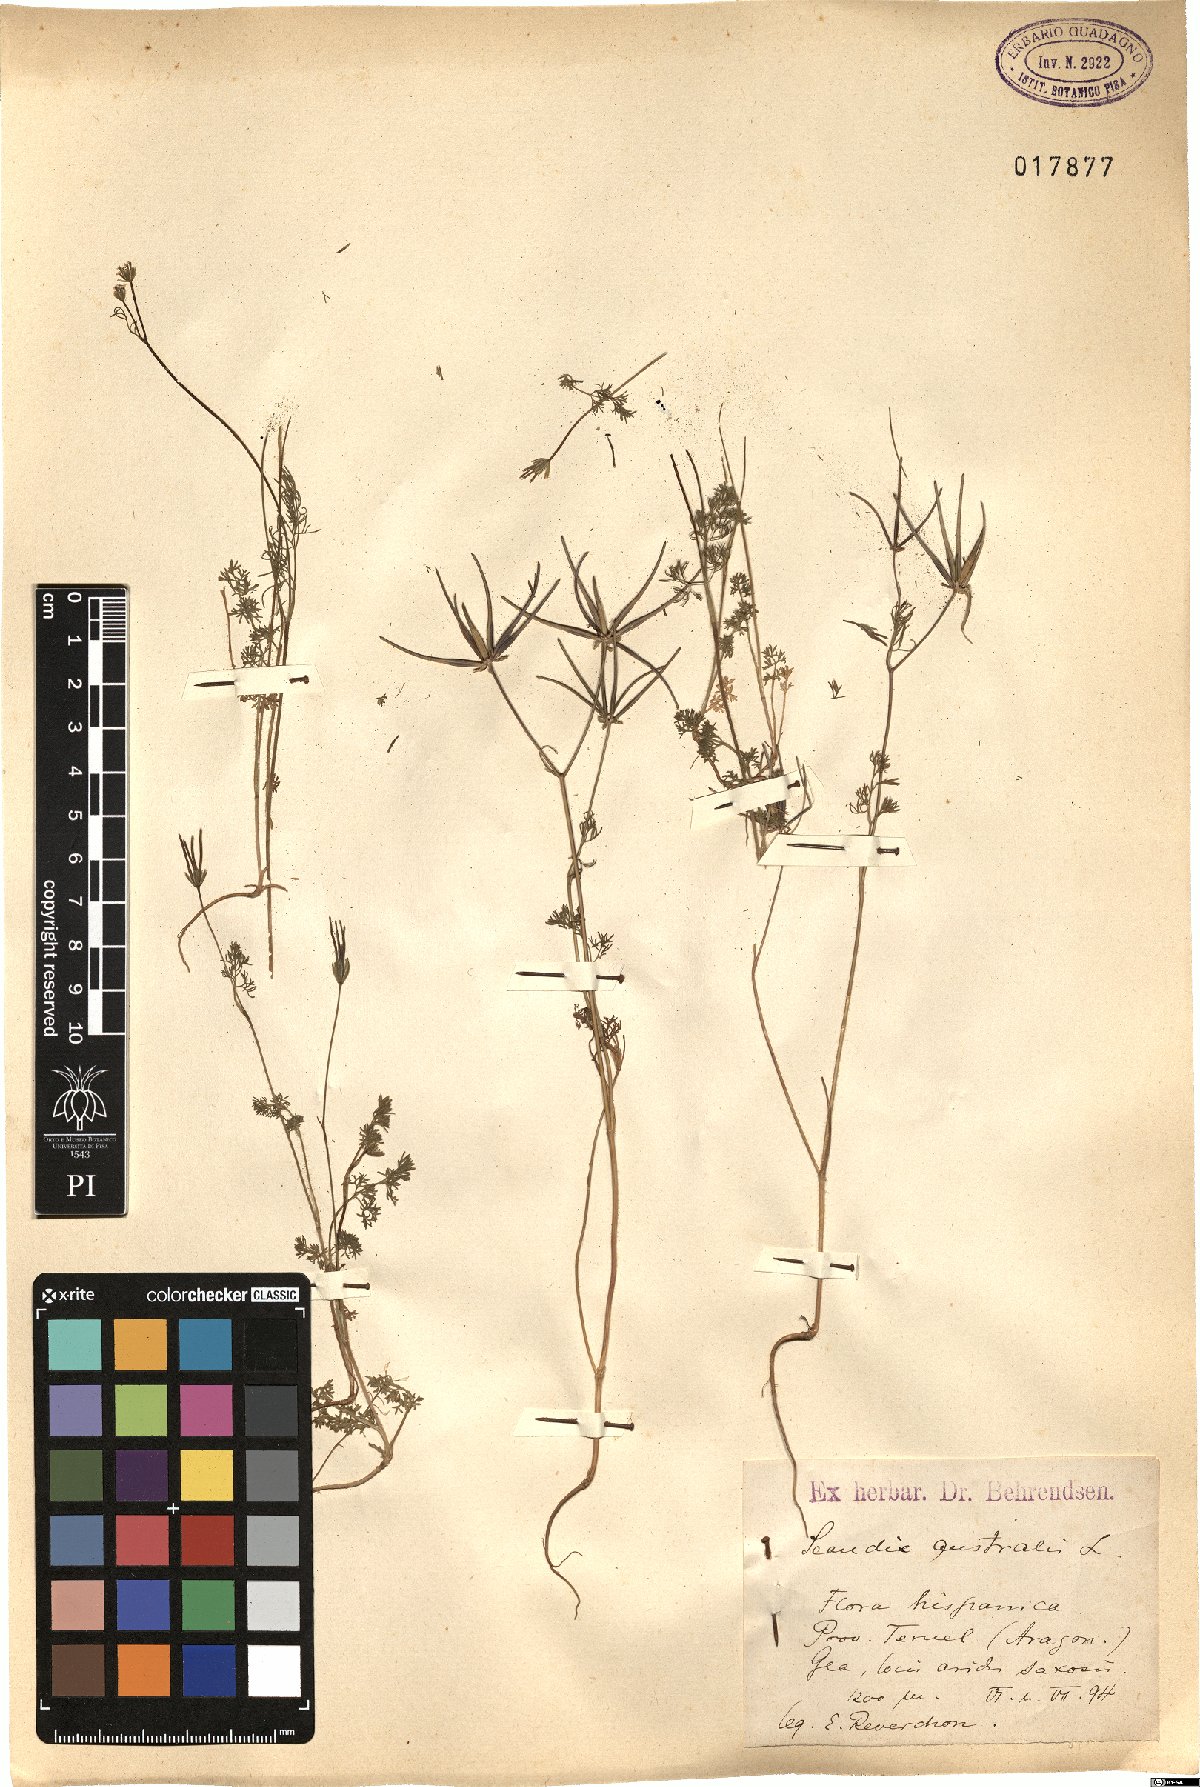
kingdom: Plantae
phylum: Tracheophyta
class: Magnoliopsida
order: Apiales
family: Apiaceae
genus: Scandix
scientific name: Scandix australis
